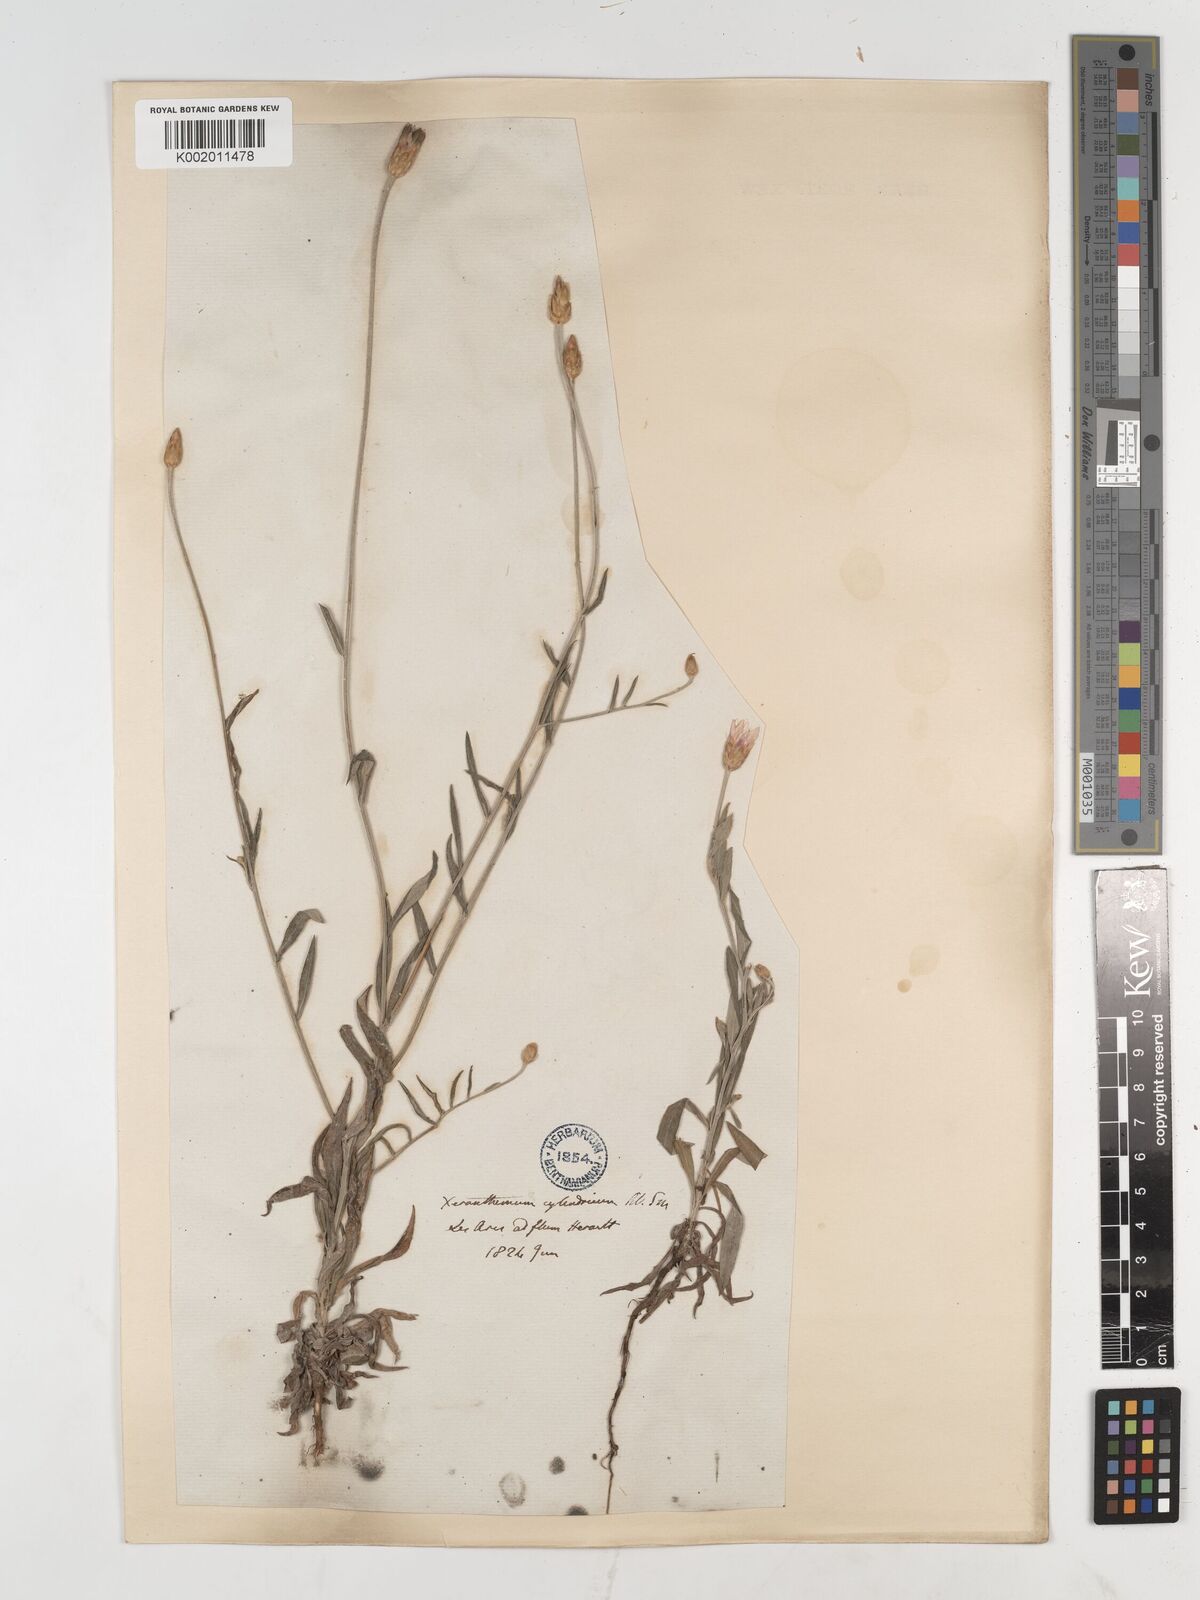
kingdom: Plantae
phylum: Tracheophyta
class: Magnoliopsida
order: Asterales
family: Asteraceae
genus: Xeranthemum
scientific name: Xeranthemum cylindraceum
